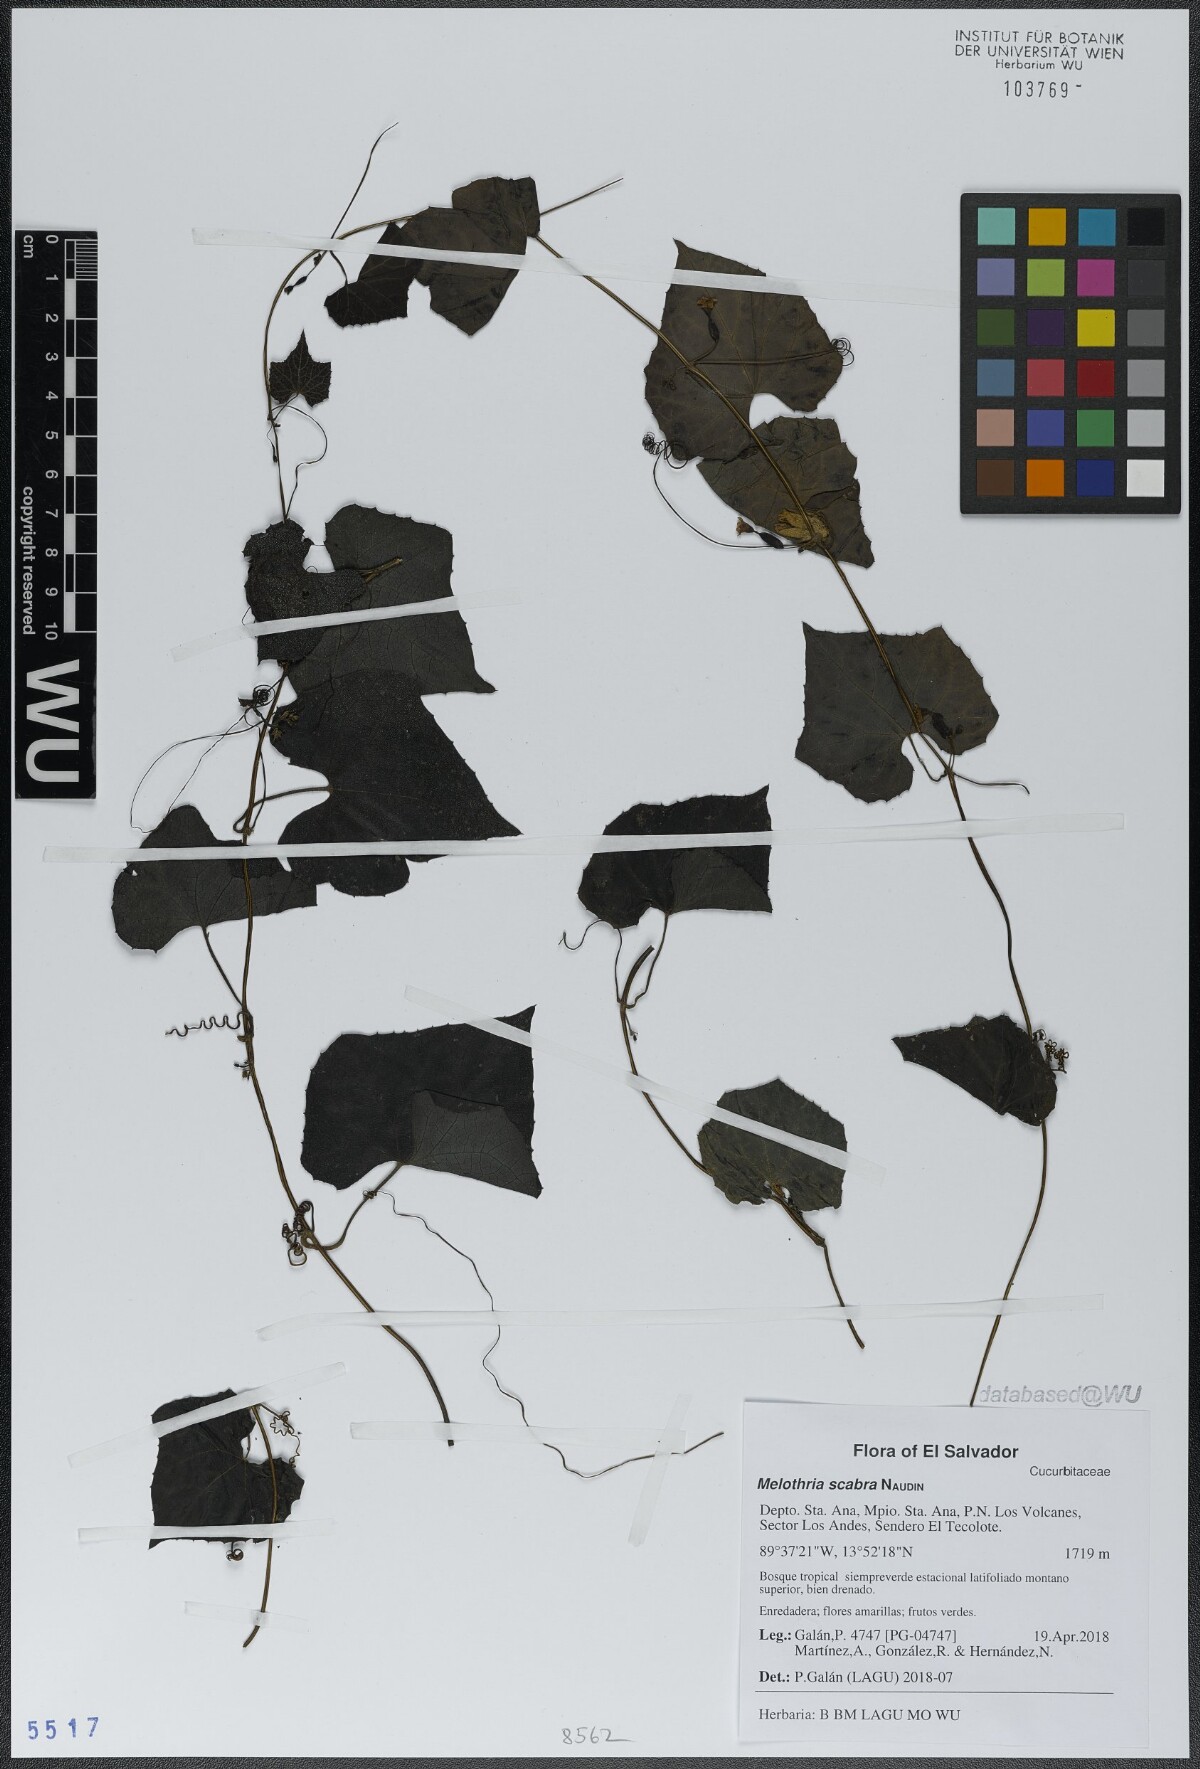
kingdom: Plantae
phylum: Tracheophyta
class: Magnoliopsida
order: Cucurbitales
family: Cucurbitaceae
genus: Melothria
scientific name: Melothria scabra
